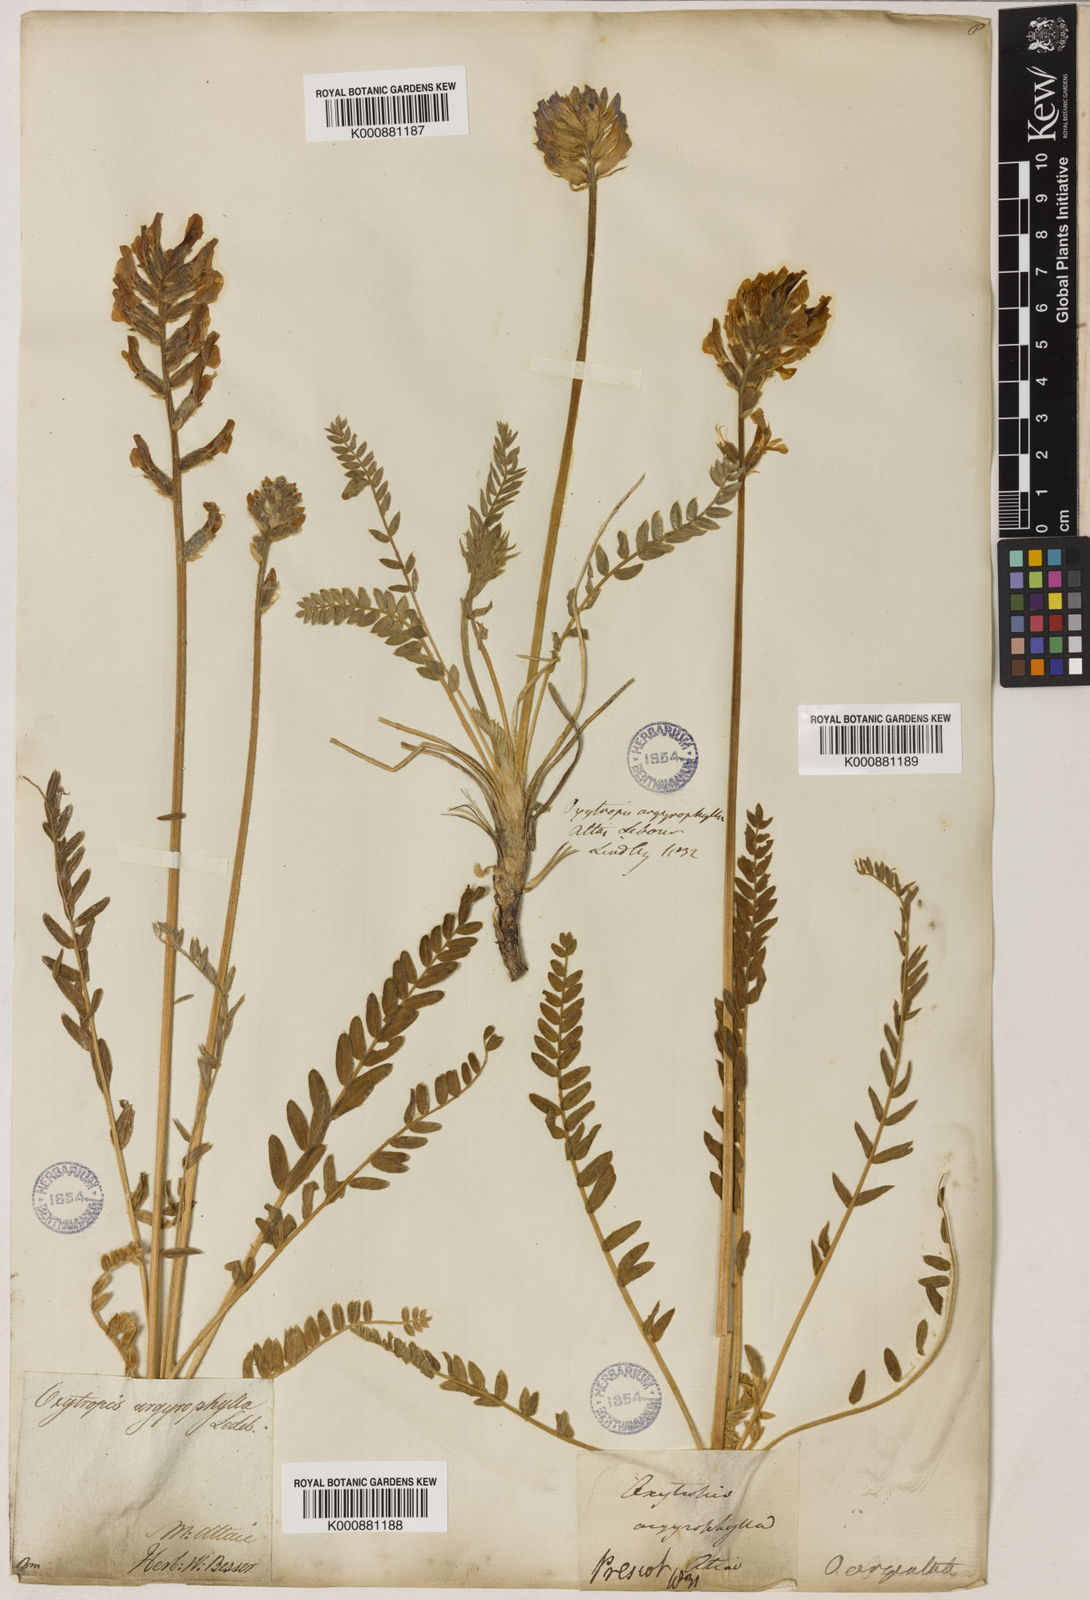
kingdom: Plantae
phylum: Tracheophyta
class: Magnoliopsida
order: Fabales
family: Fabaceae
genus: Oxytropis
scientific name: Oxytropis argentata
